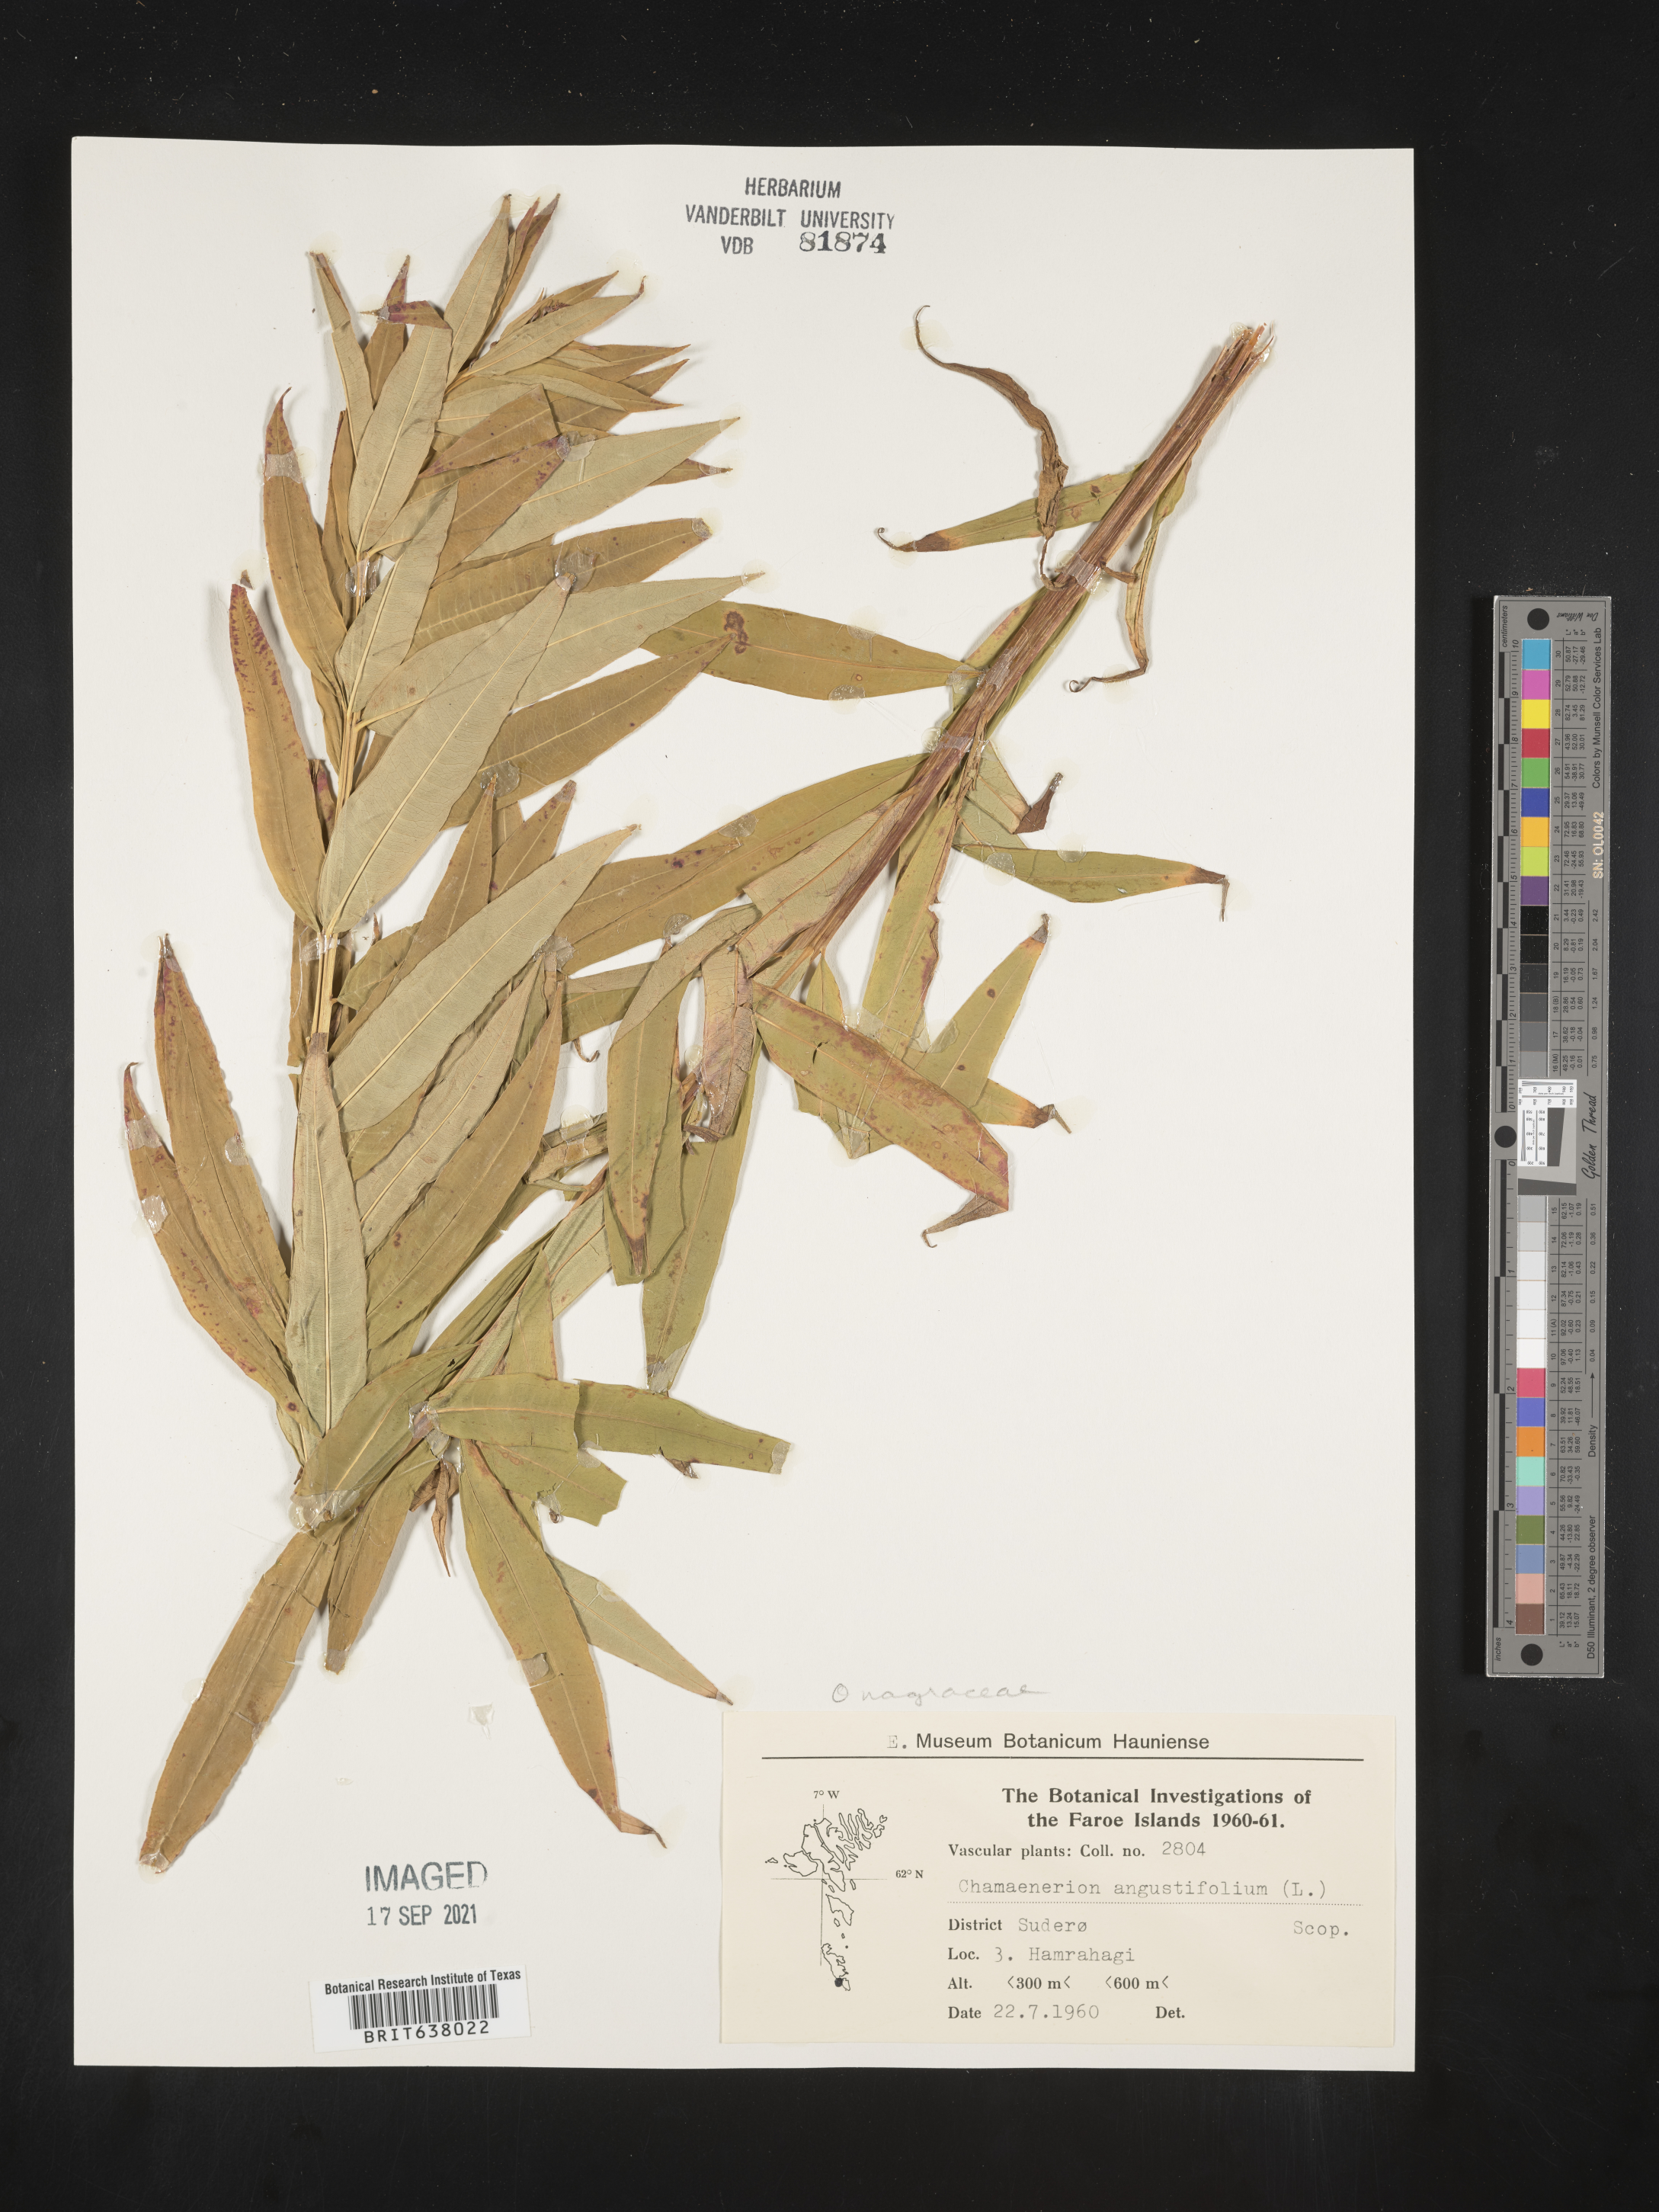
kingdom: Plantae
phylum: Tracheophyta
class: Magnoliopsida
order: Myrtales
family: Onagraceae
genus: Chamaenerion
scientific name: Chamaenerion
